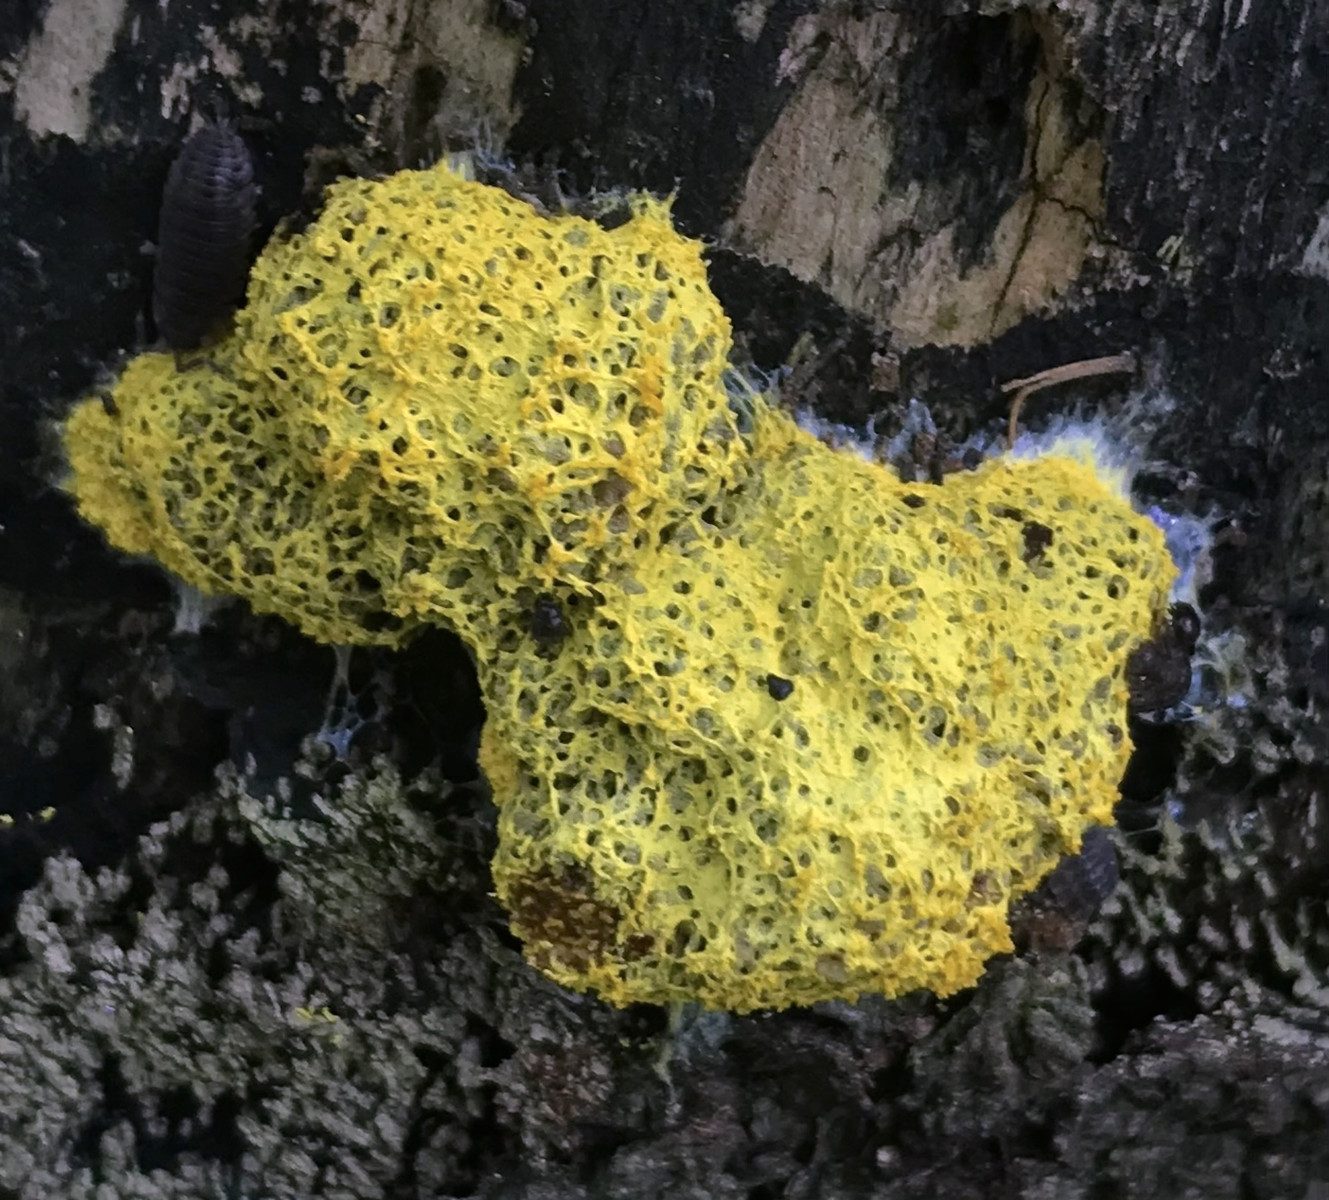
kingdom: Protozoa
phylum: Mycetozoa
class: Myxomycetes
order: Physarales
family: Physaraceae
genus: Fuligo
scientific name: Fuligo septica
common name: gul troldsmør
